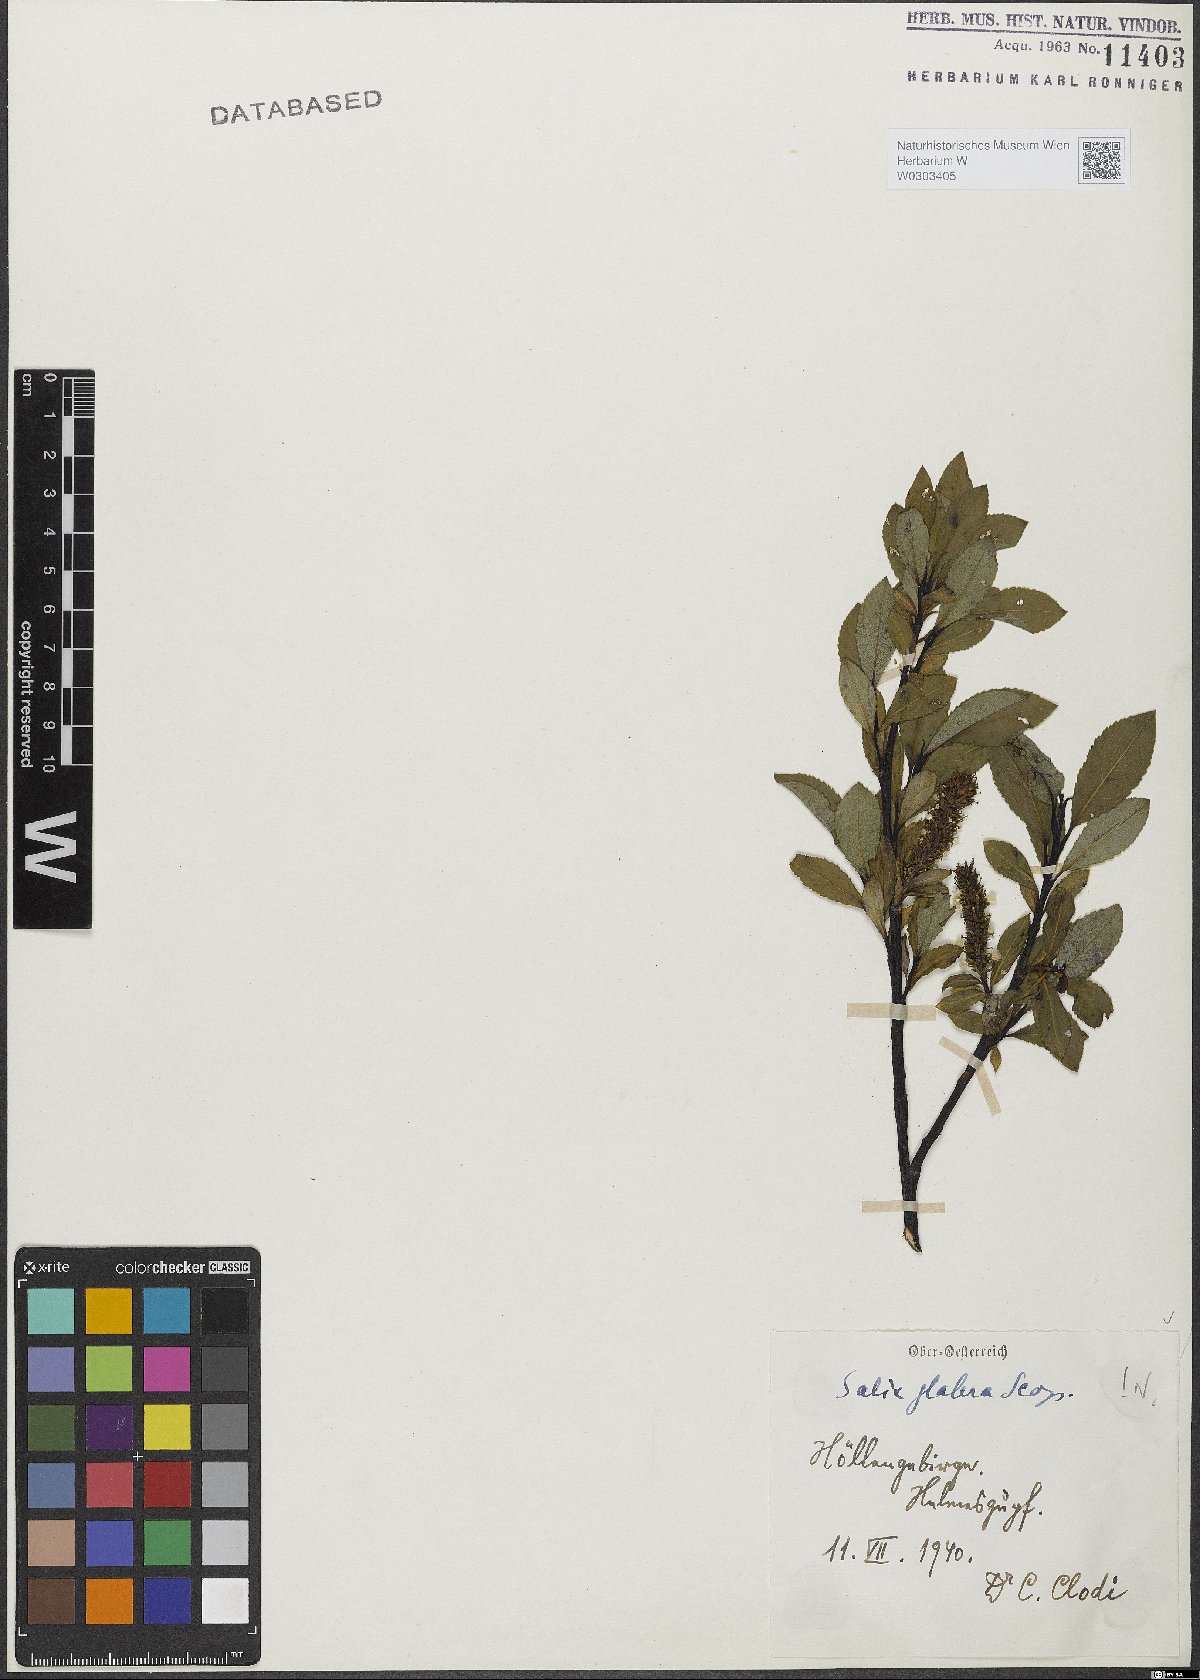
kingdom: Plantae
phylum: Tracheophyta
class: Magnoliopsida
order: Malpighiales
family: Salicaceae
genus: Salix
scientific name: Salix glabra
